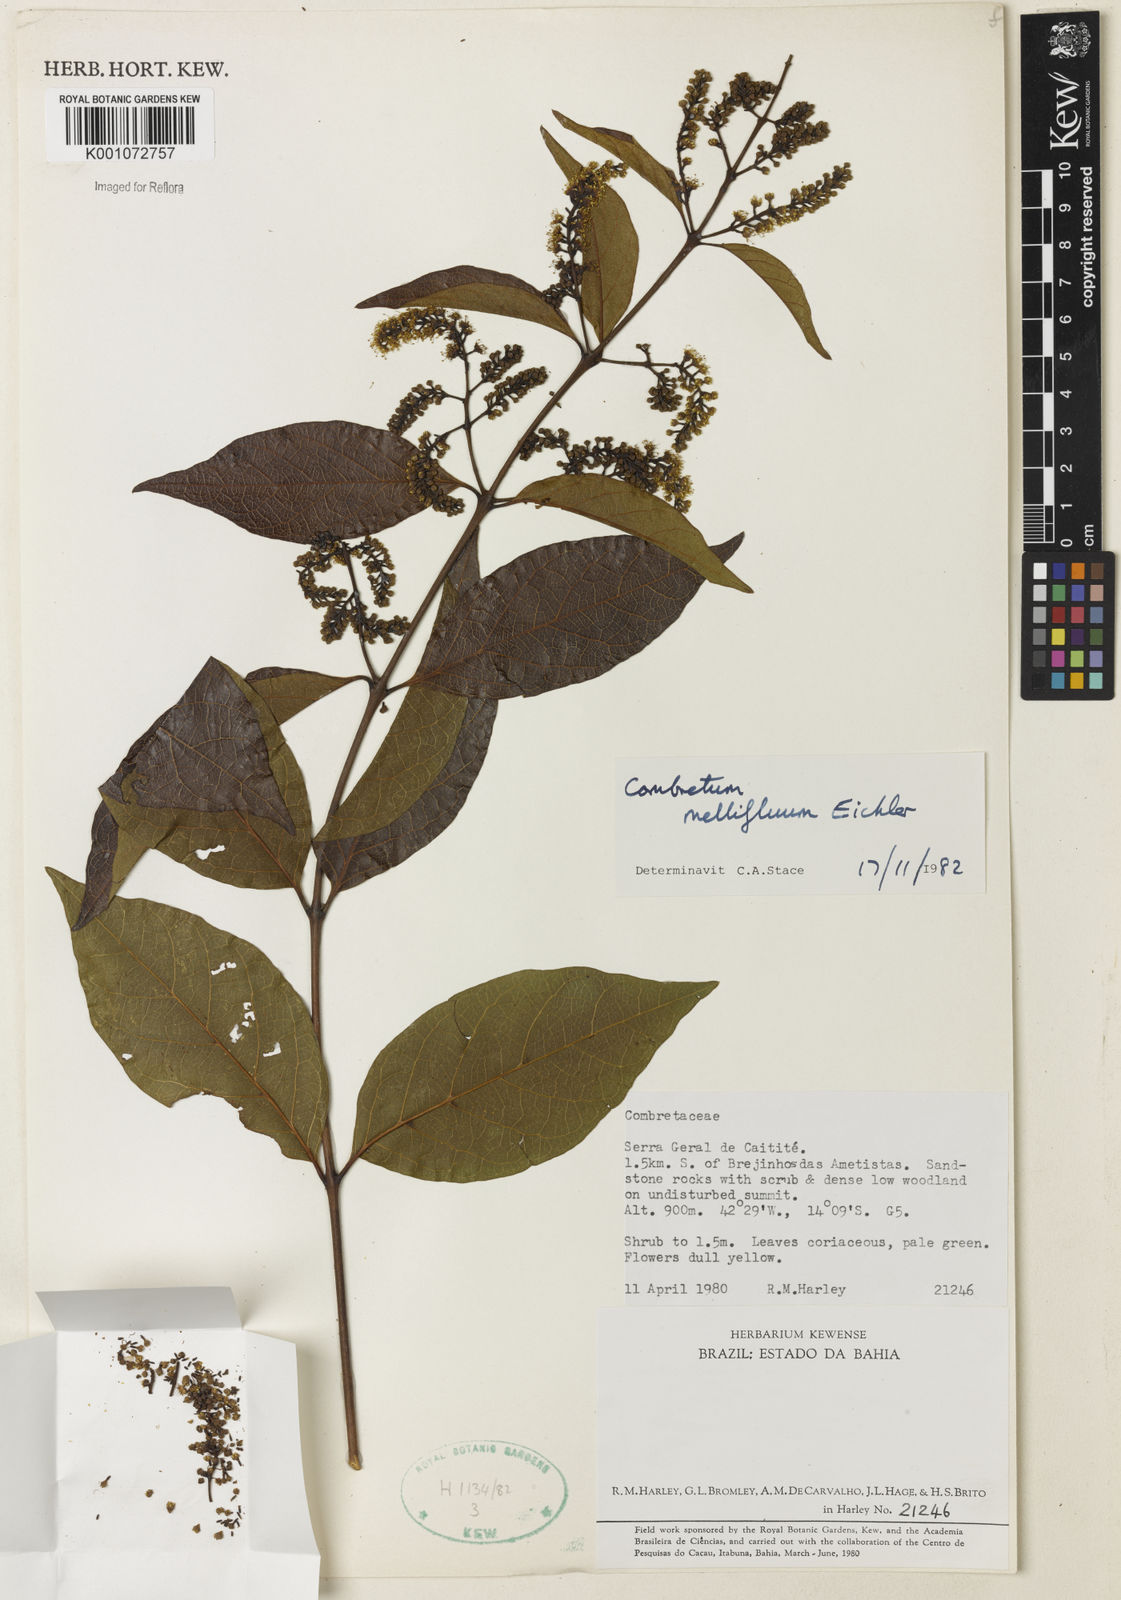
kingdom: Plantae
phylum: Tracheophyta
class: Magnoliopsida
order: Myrtales
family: Combretaceae
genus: Combretum
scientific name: Combretum mellifluum
